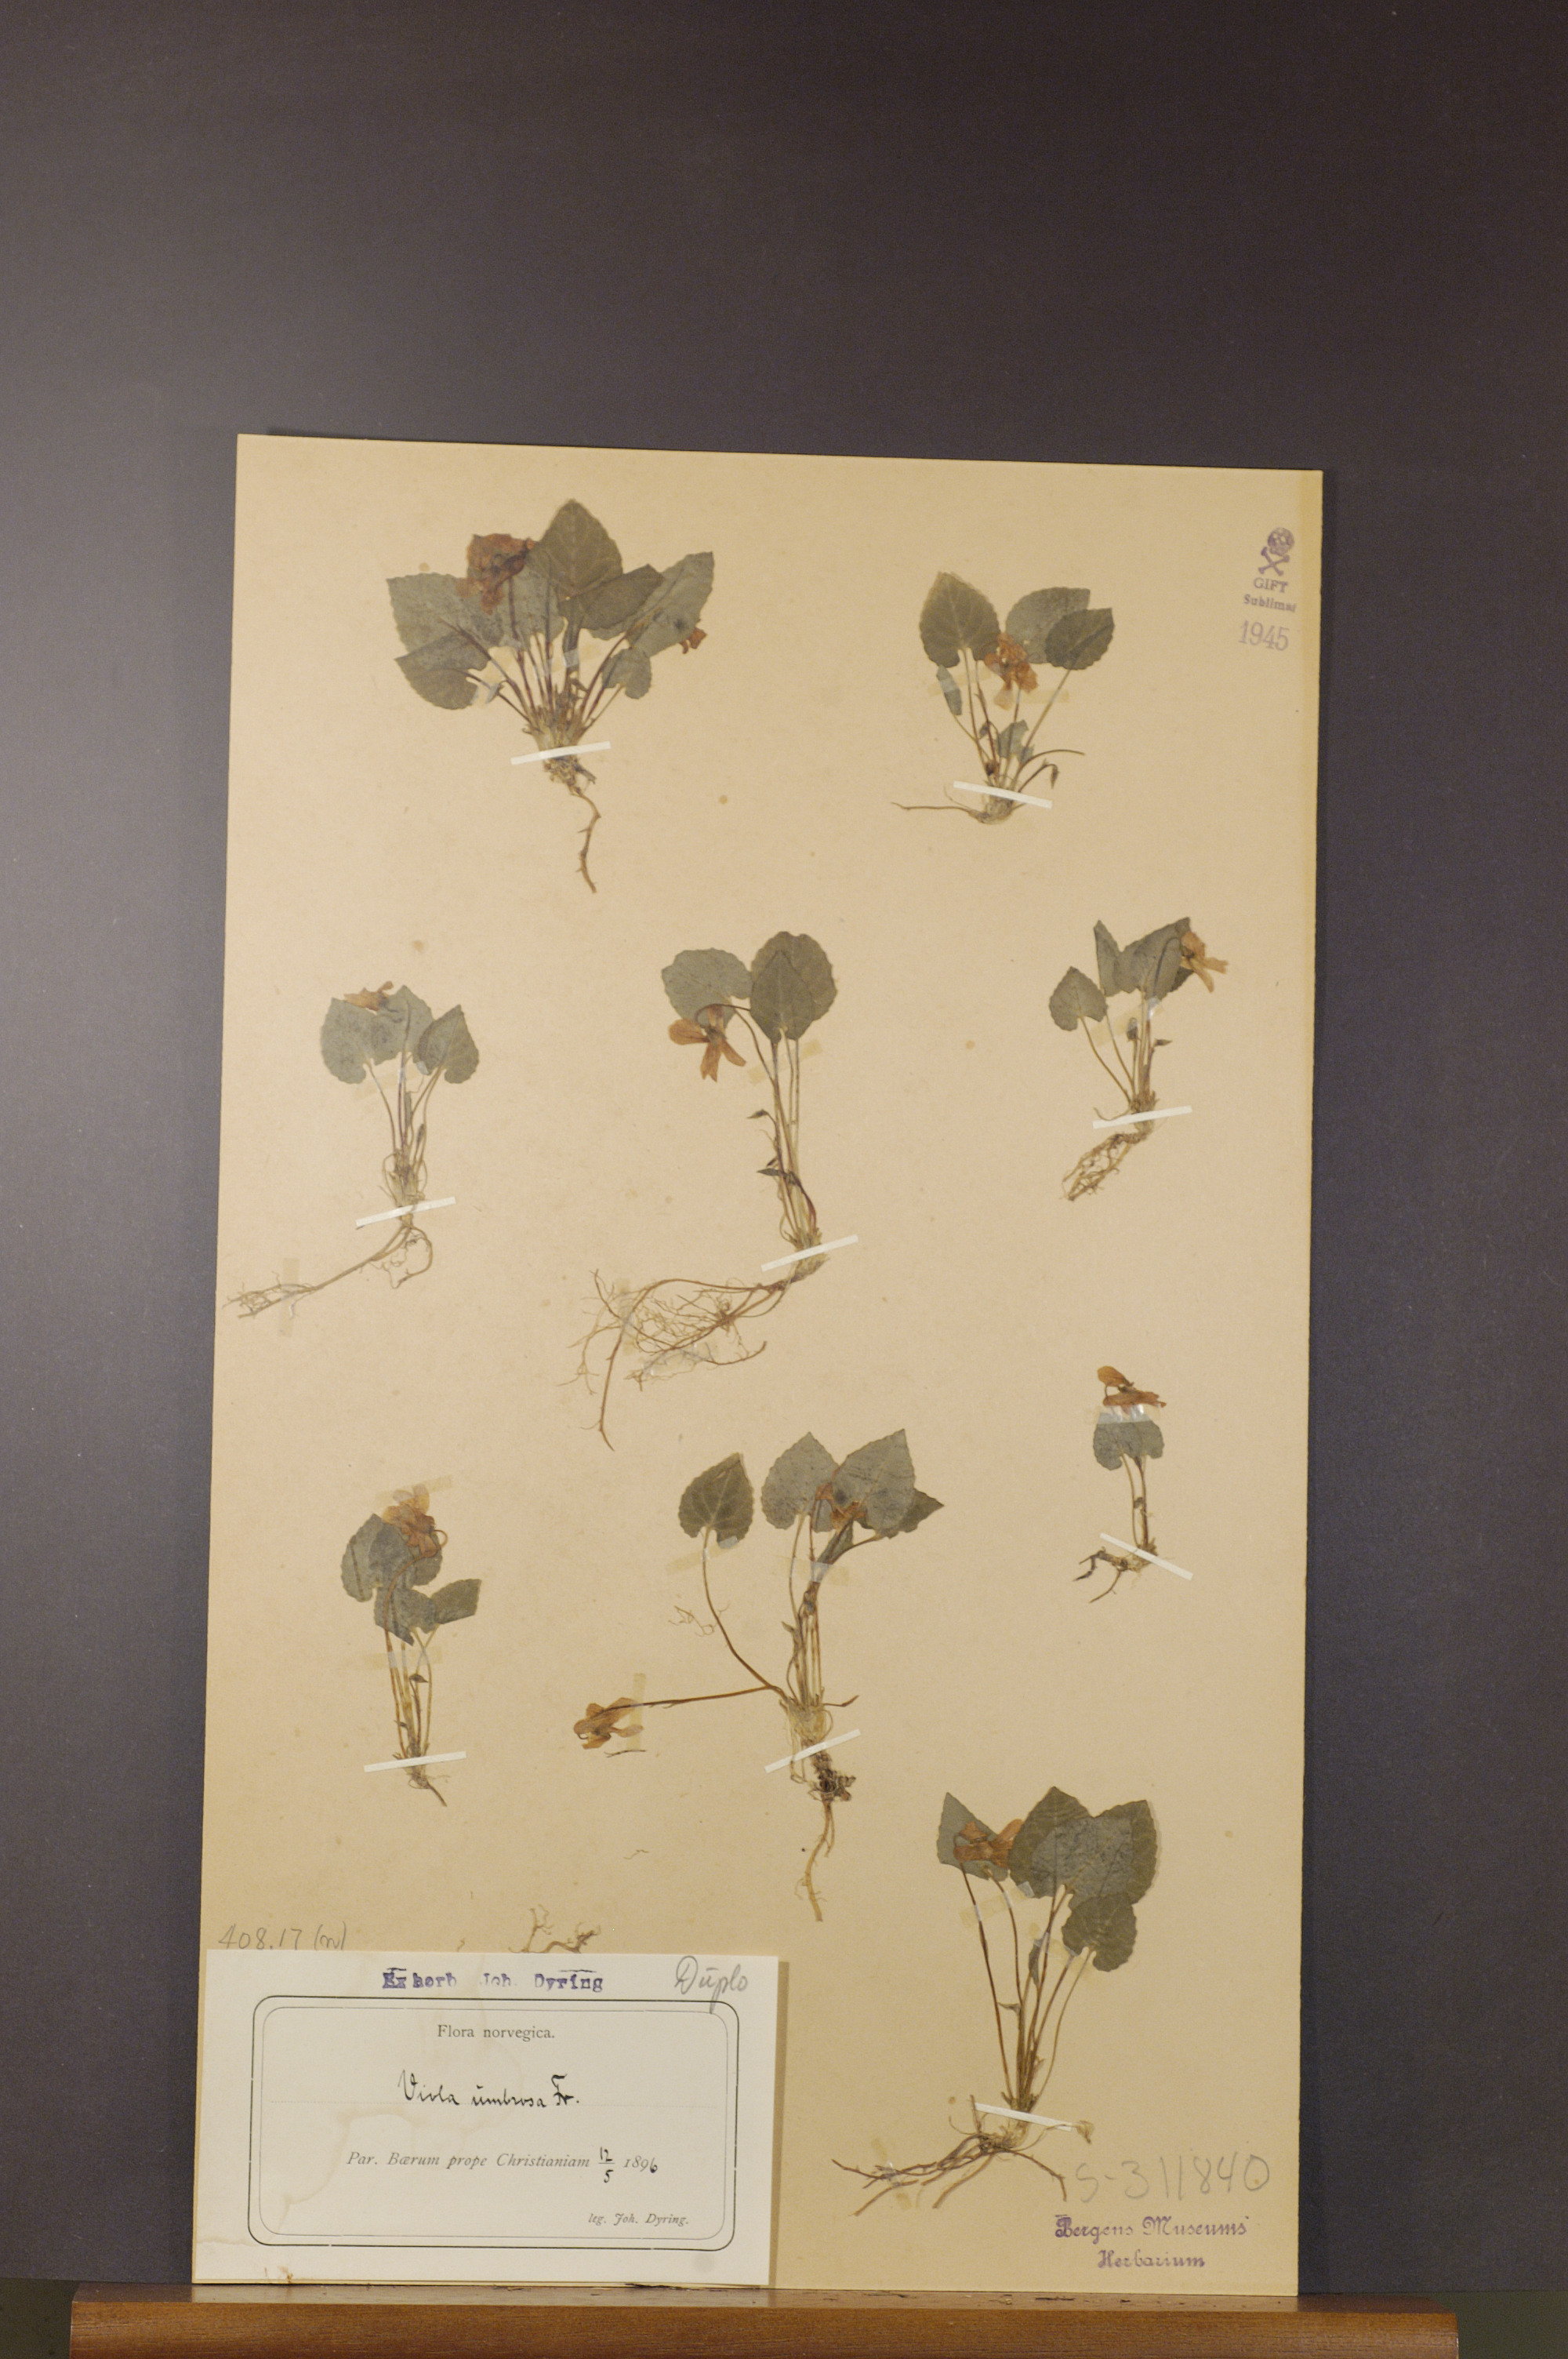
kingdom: Plantae
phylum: Tracheophyta
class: Magnoliopsida
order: Malpighiales
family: Violaceae
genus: Viola
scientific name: Viola selkirkii
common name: Selkirk's violet
